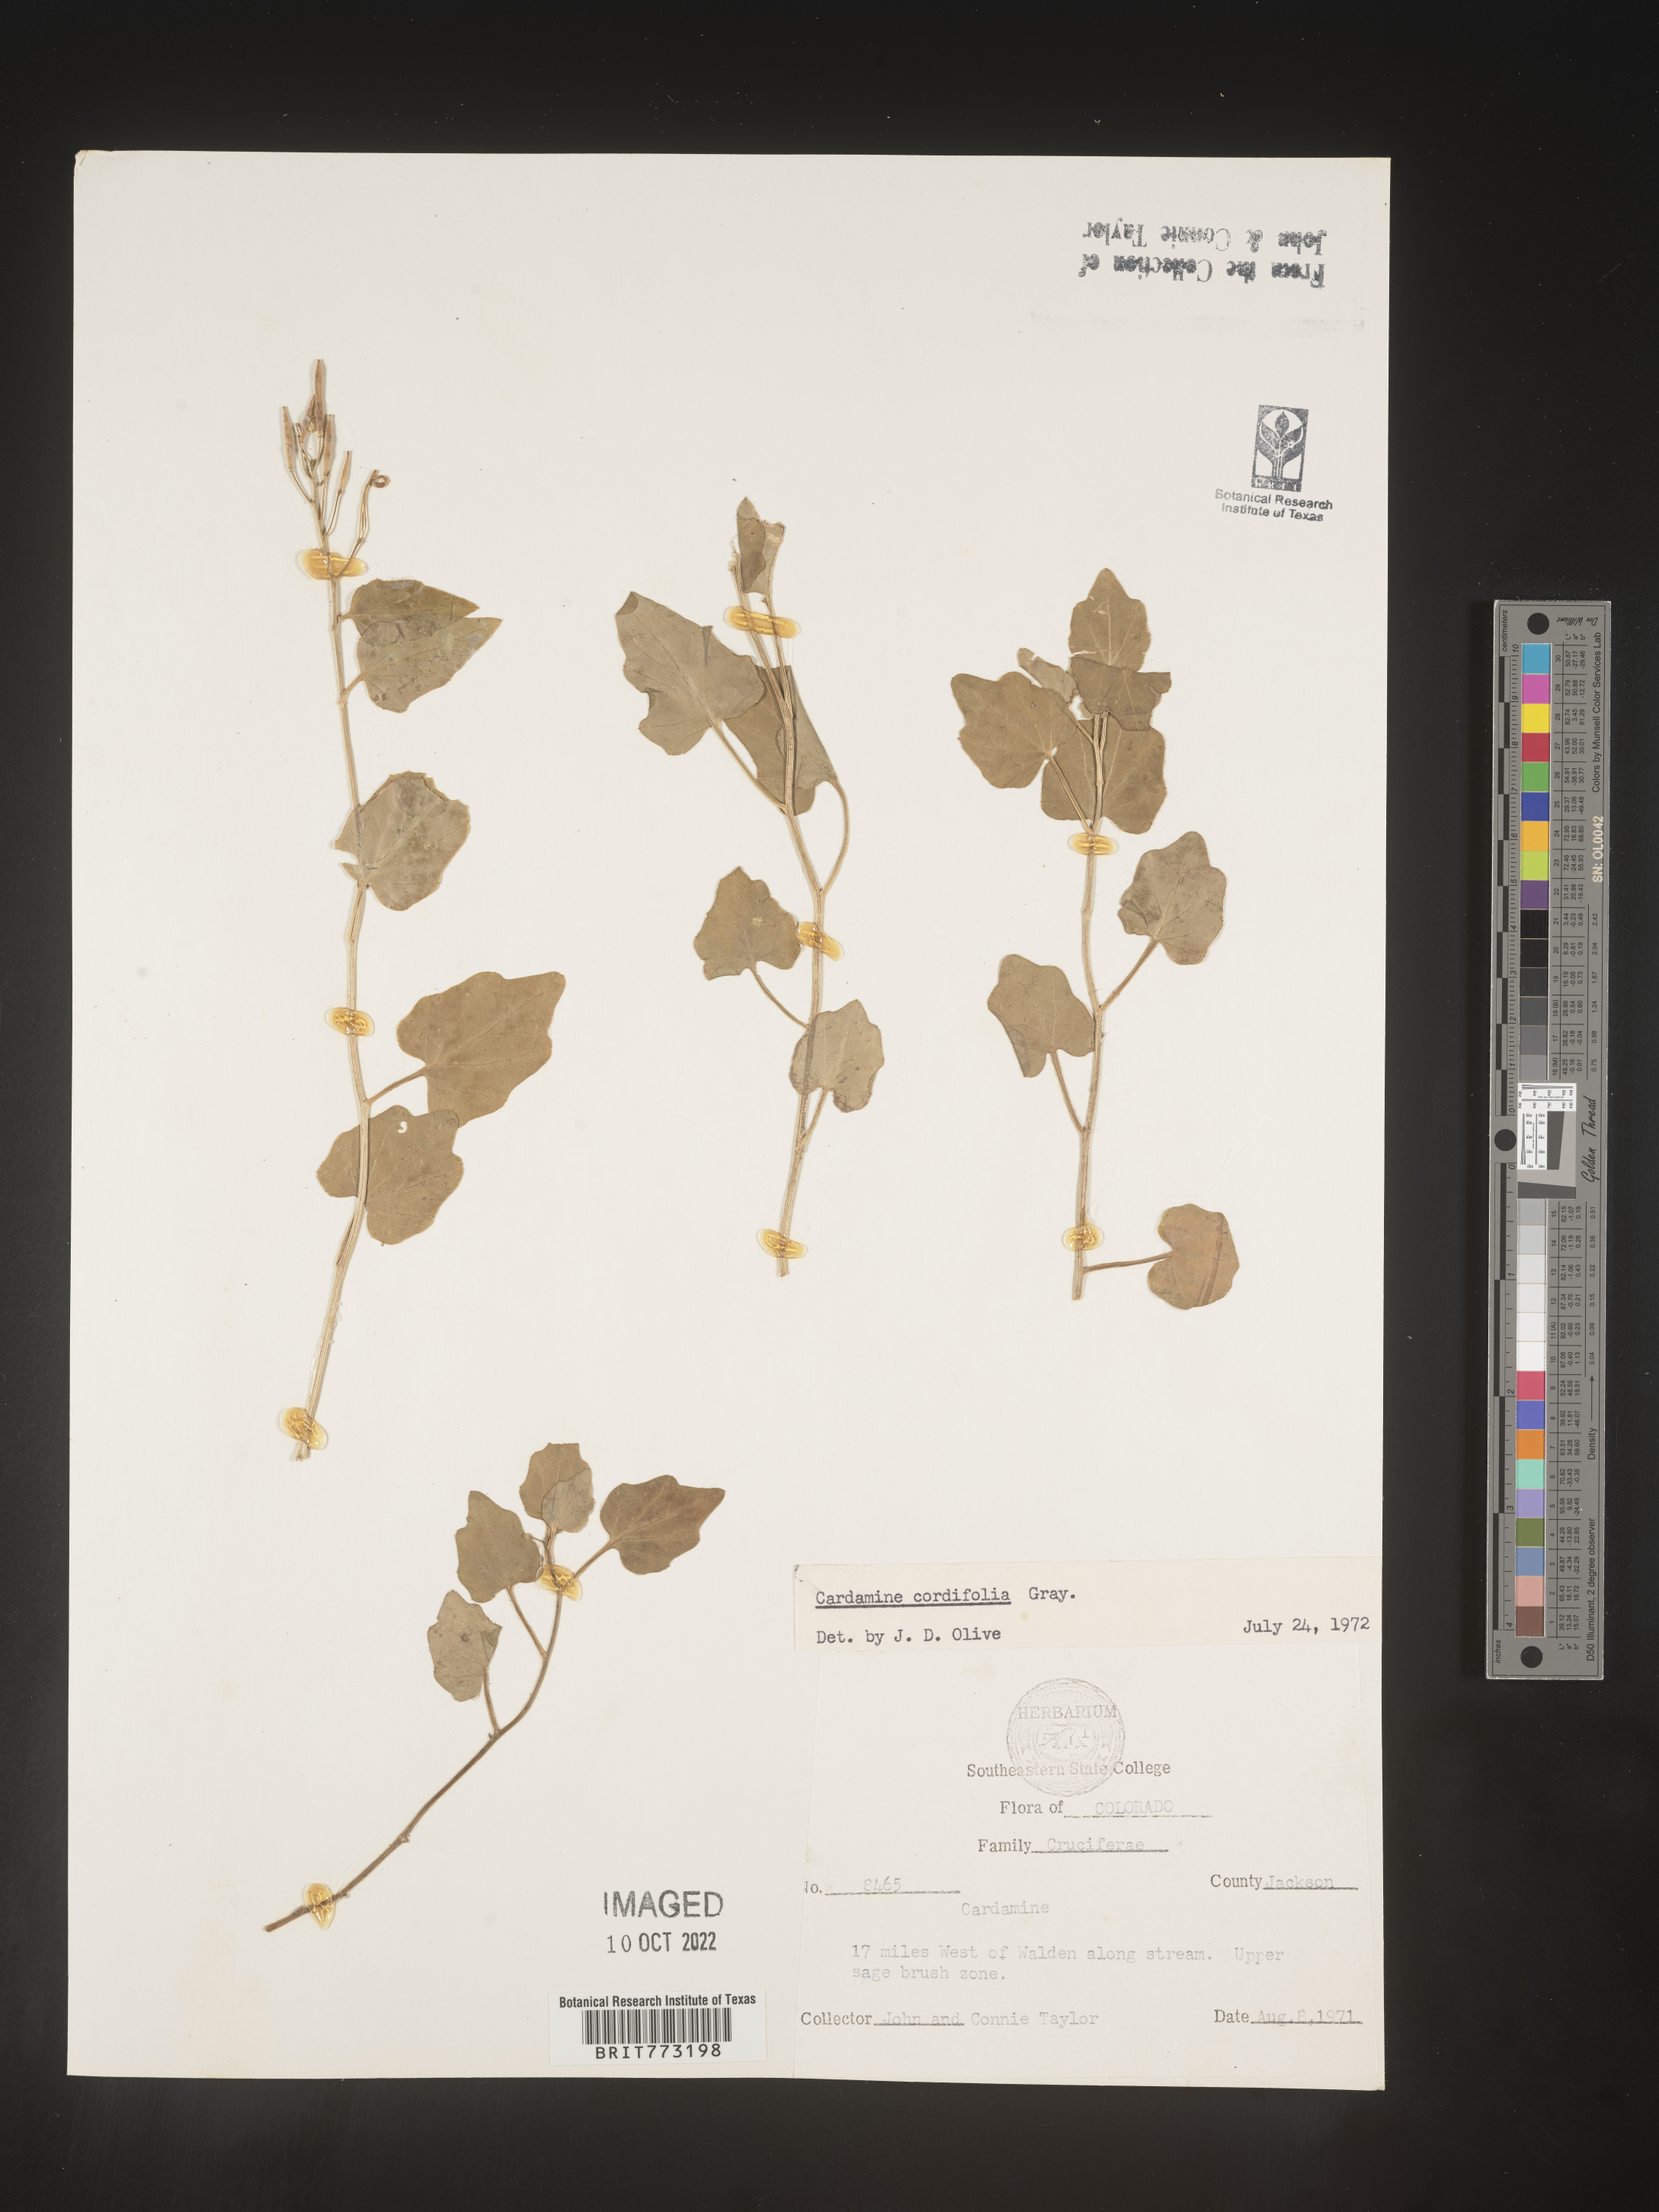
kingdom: Plantae
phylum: Tracheophyta
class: Magnoliopsida
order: Brassicales
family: Brassicaceae
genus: Cardamine
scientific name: Cardamine
